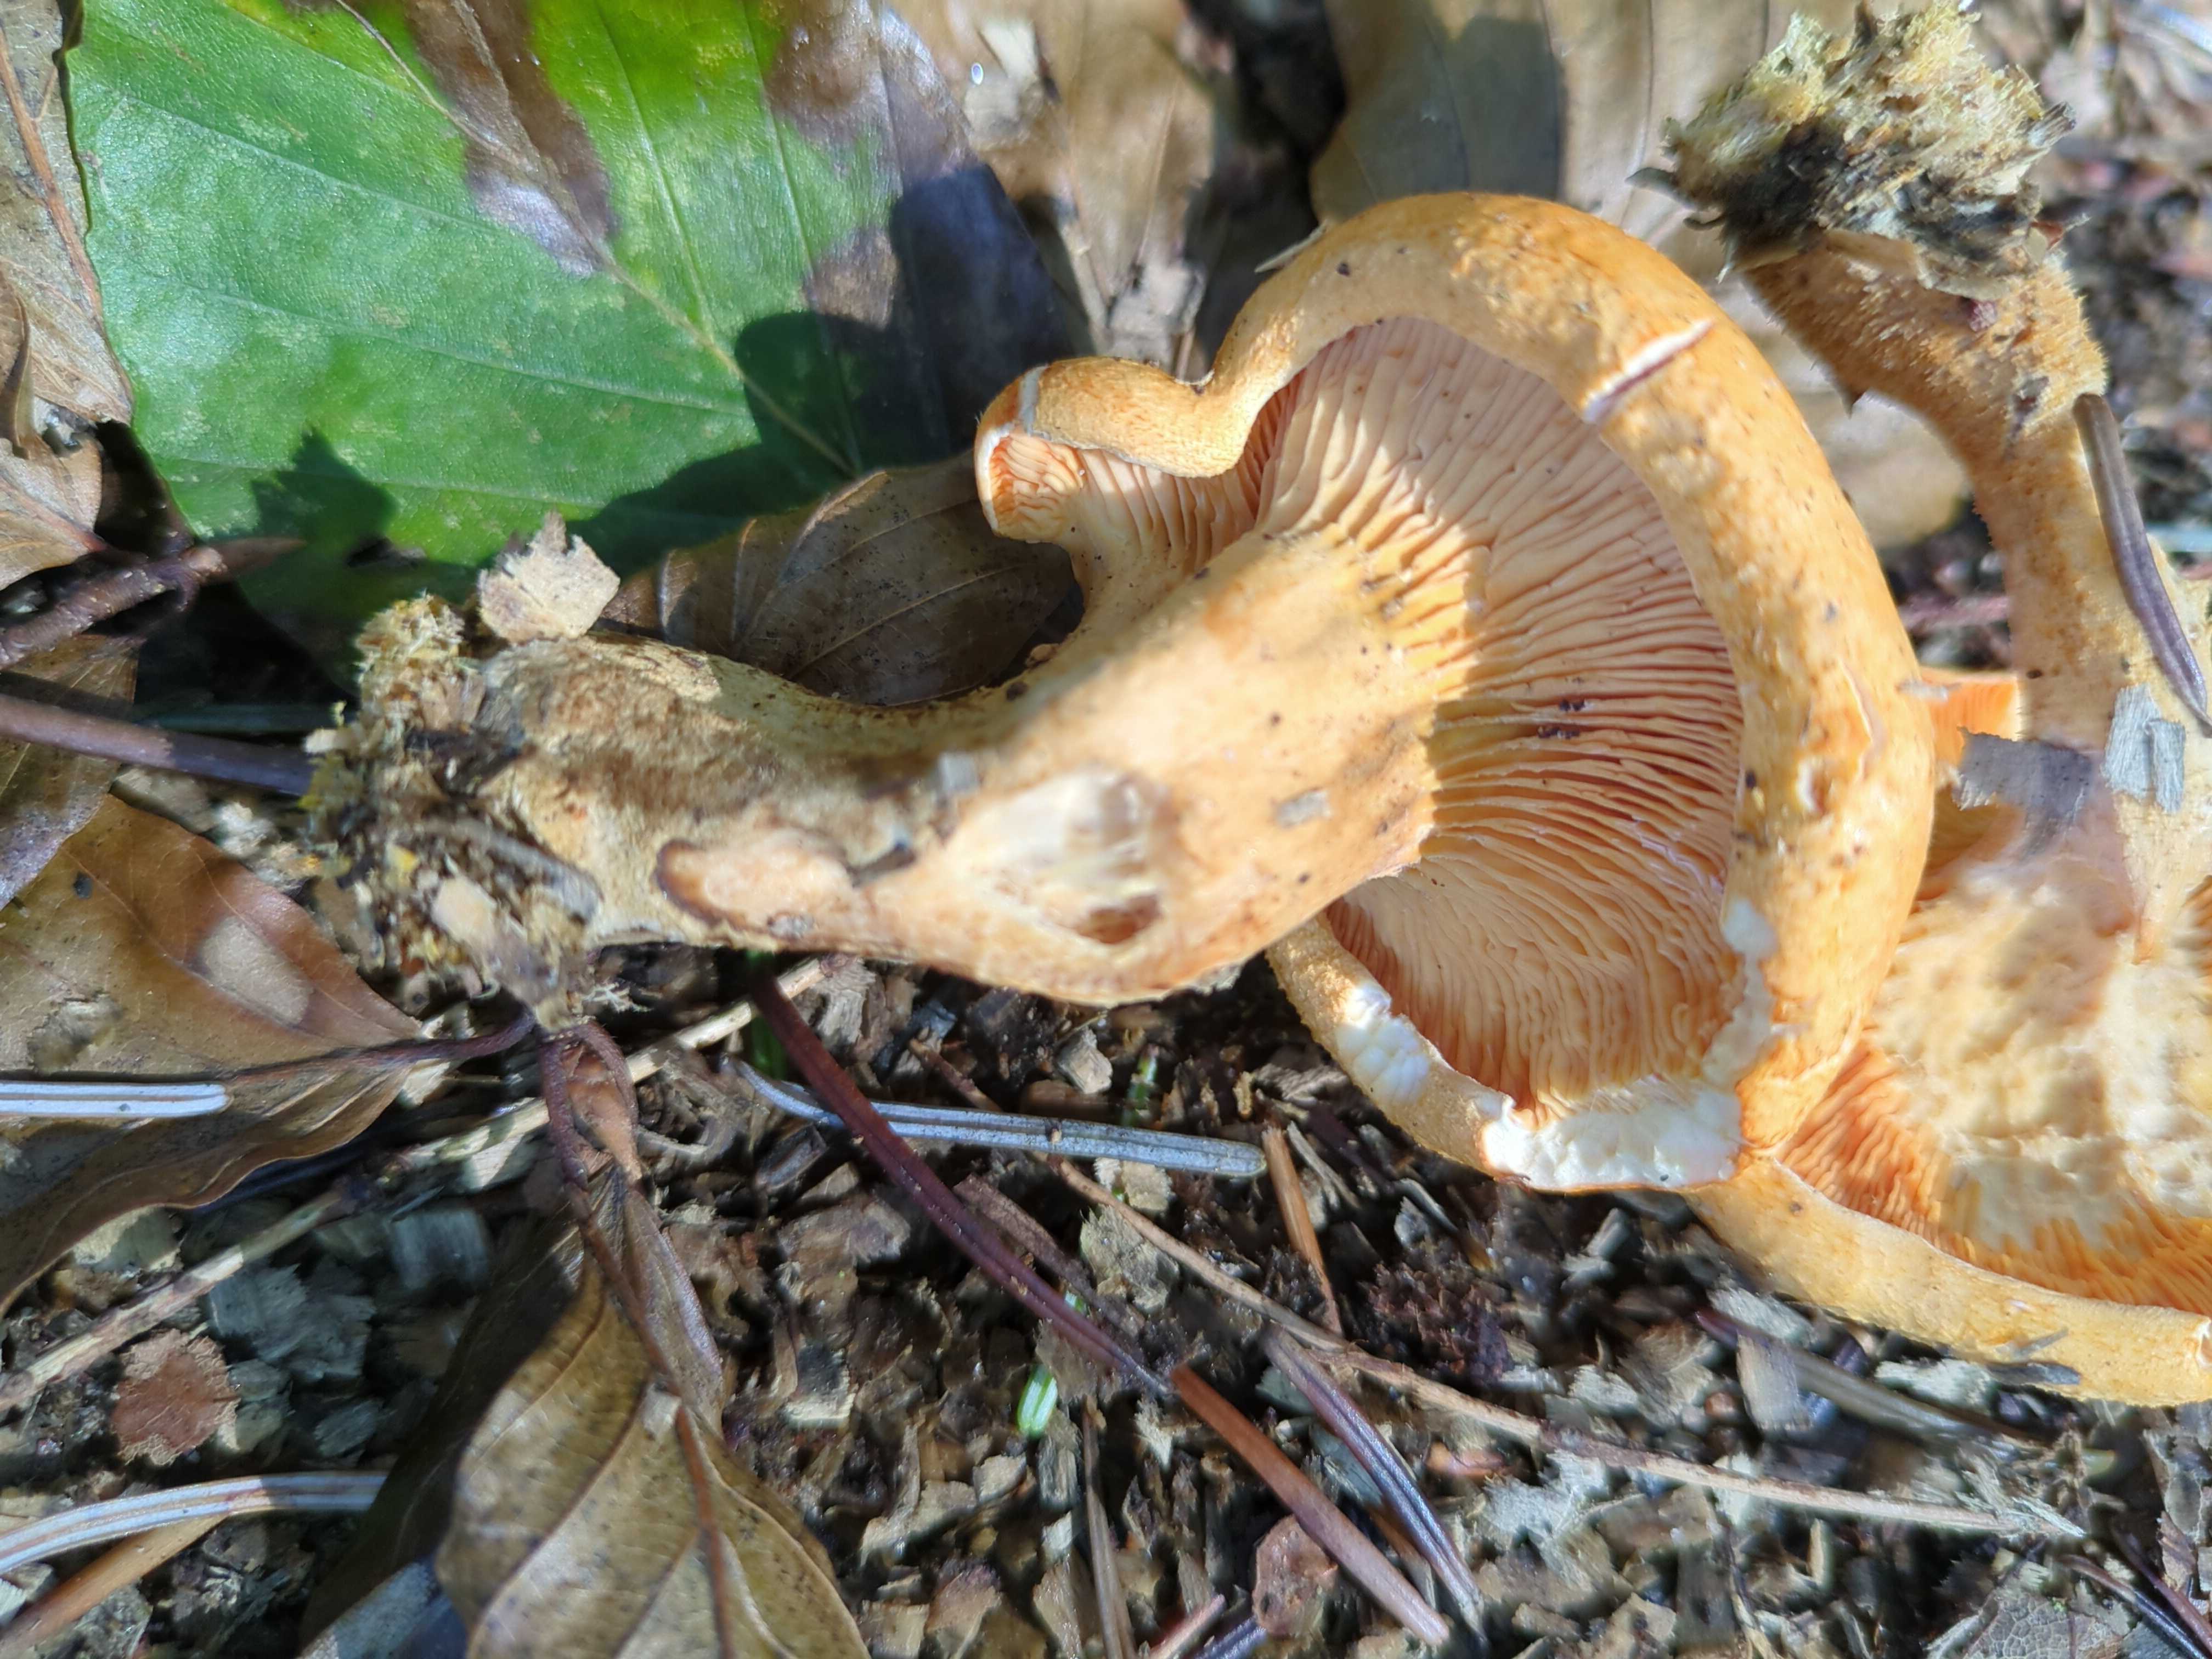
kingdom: Fungi
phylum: Basidiomycota
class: Agaricomycetes
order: Boletales
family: Hygrophoropsidaceae
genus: Hygrophoropsis
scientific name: Hygrophoropsis aurantiaca
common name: almindelig orangekantarel
